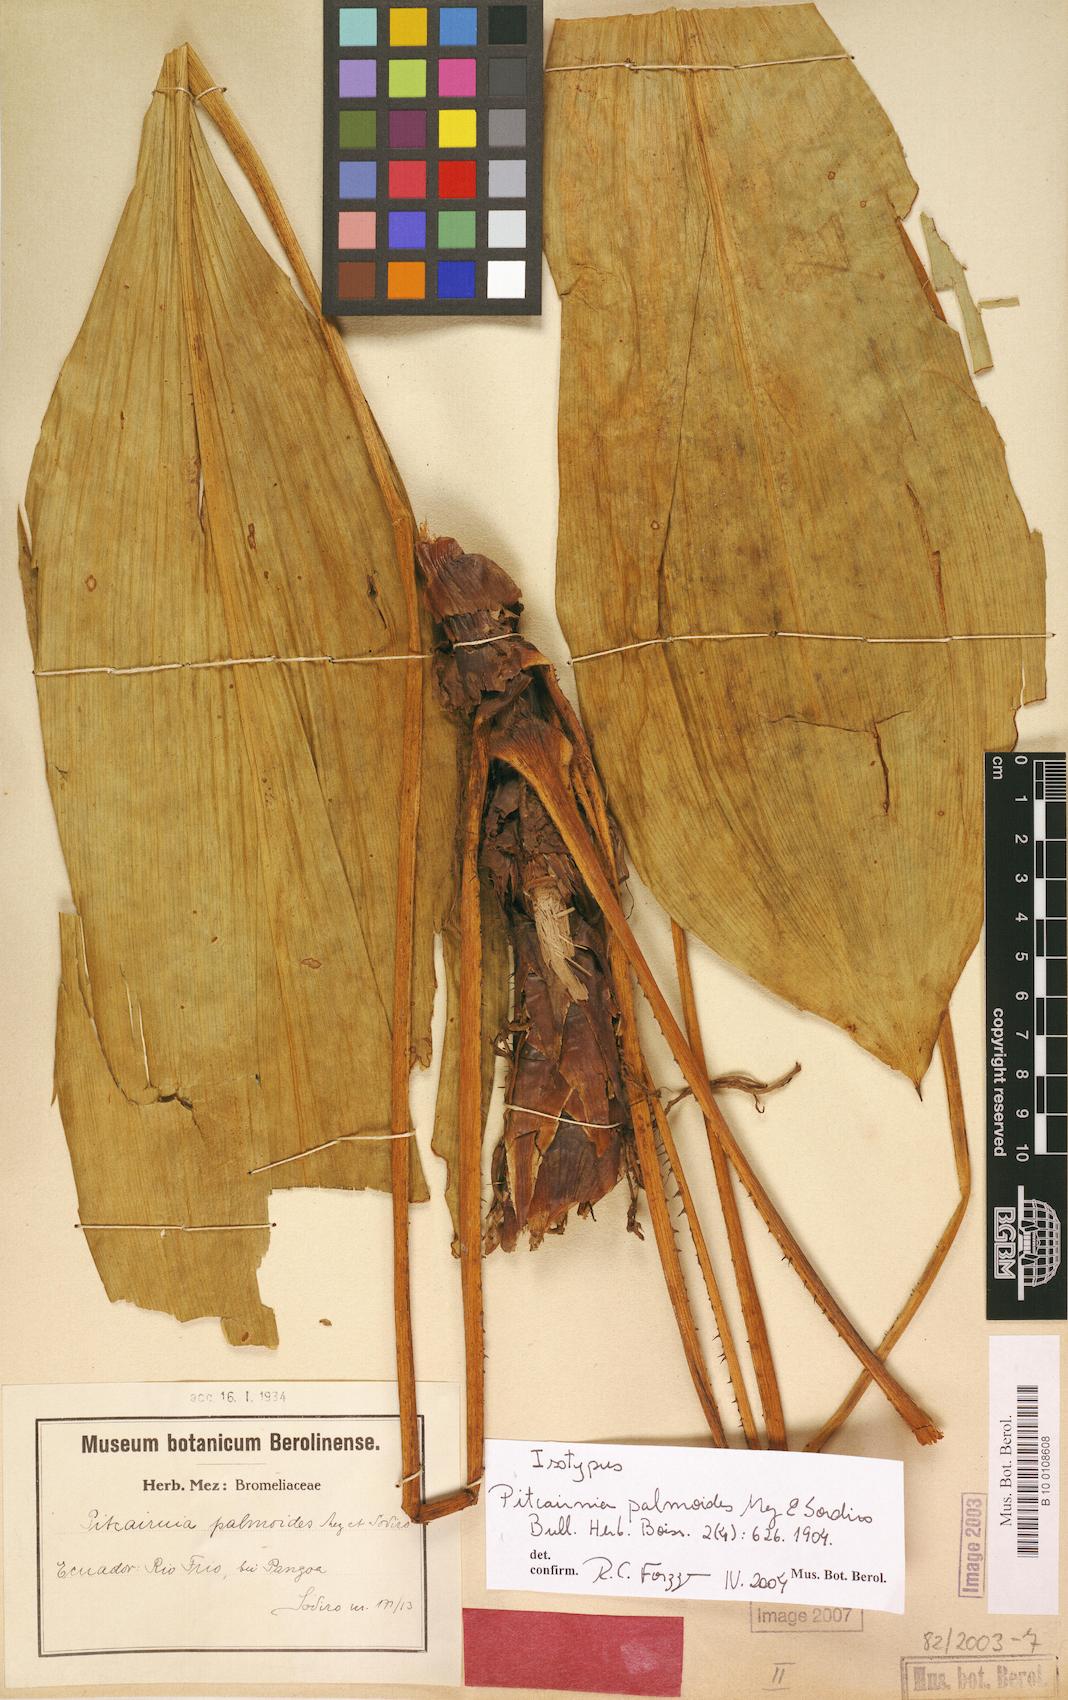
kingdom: Plantae
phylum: Tracheophyta
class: Liliopsida
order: Poales
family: Bromeliaceae
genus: Pitcairnia
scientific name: Pitcairnia palmoides
